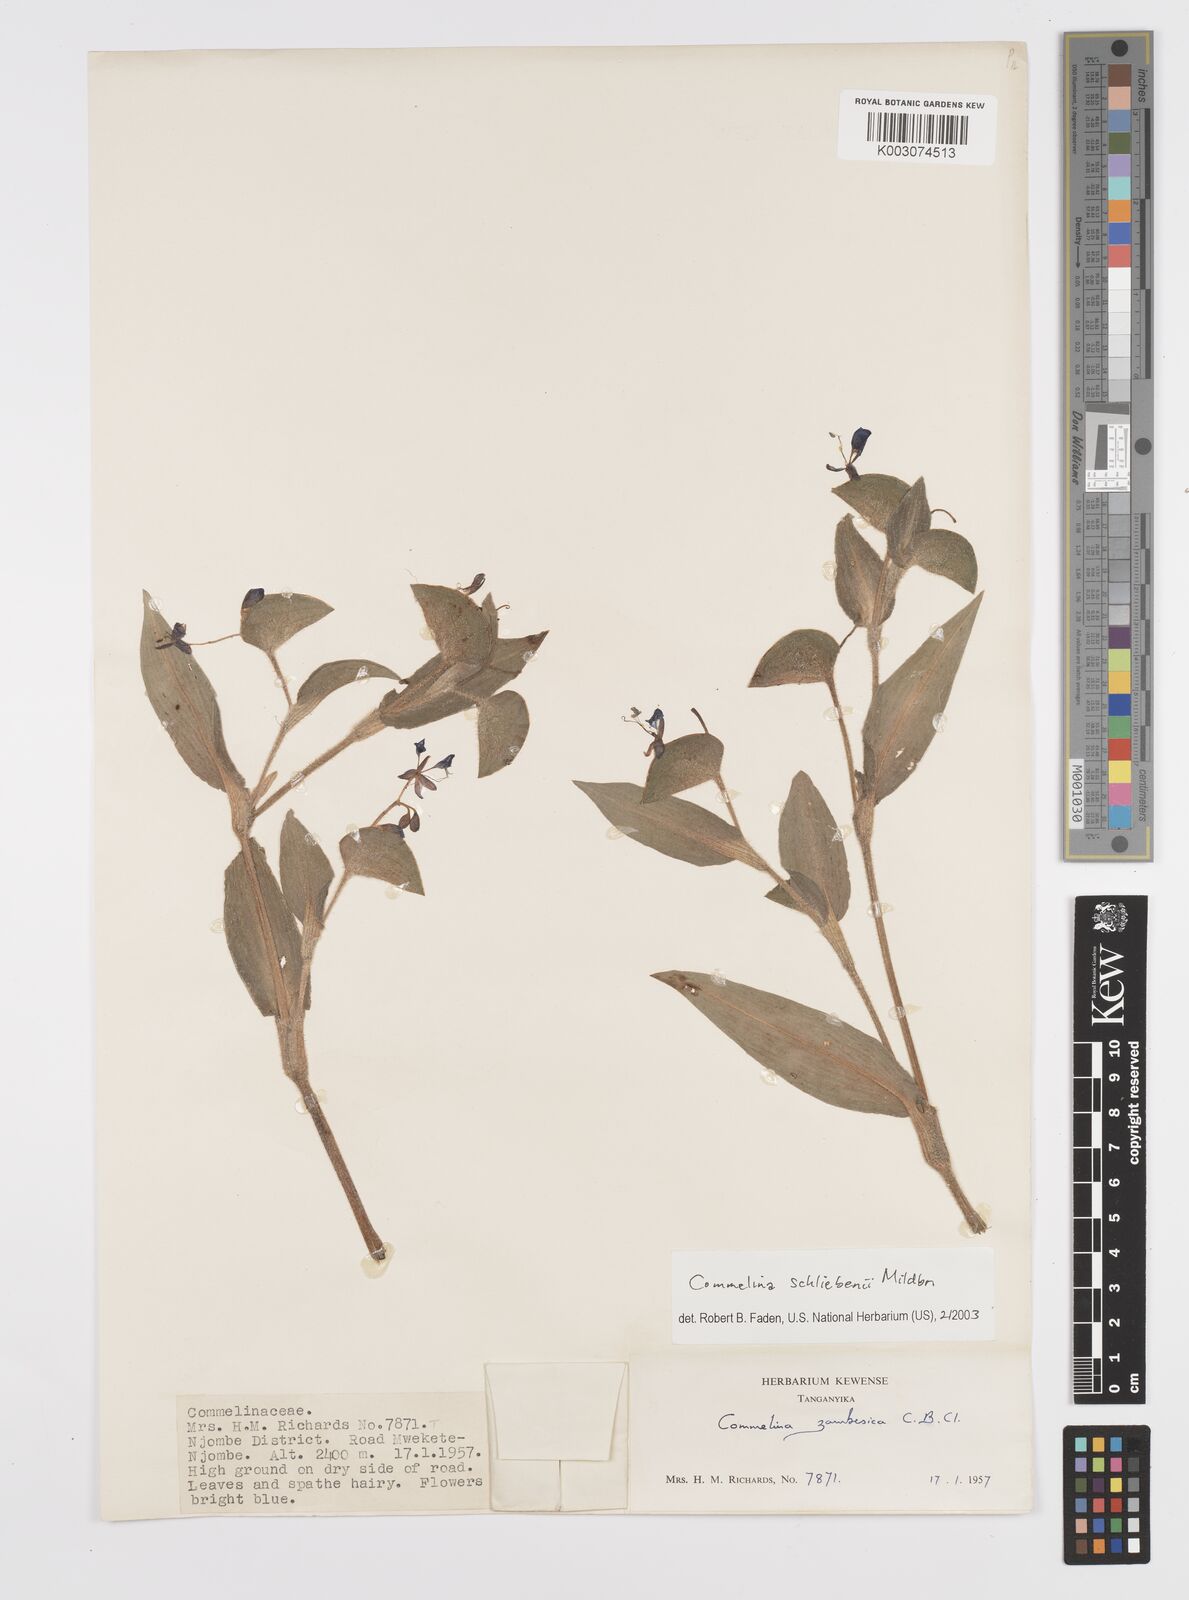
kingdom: Plantae
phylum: Tracheophyta
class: Liliopsida
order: Commelinales
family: Commelinaceae
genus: Commelina
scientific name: Commelina schliebenii
